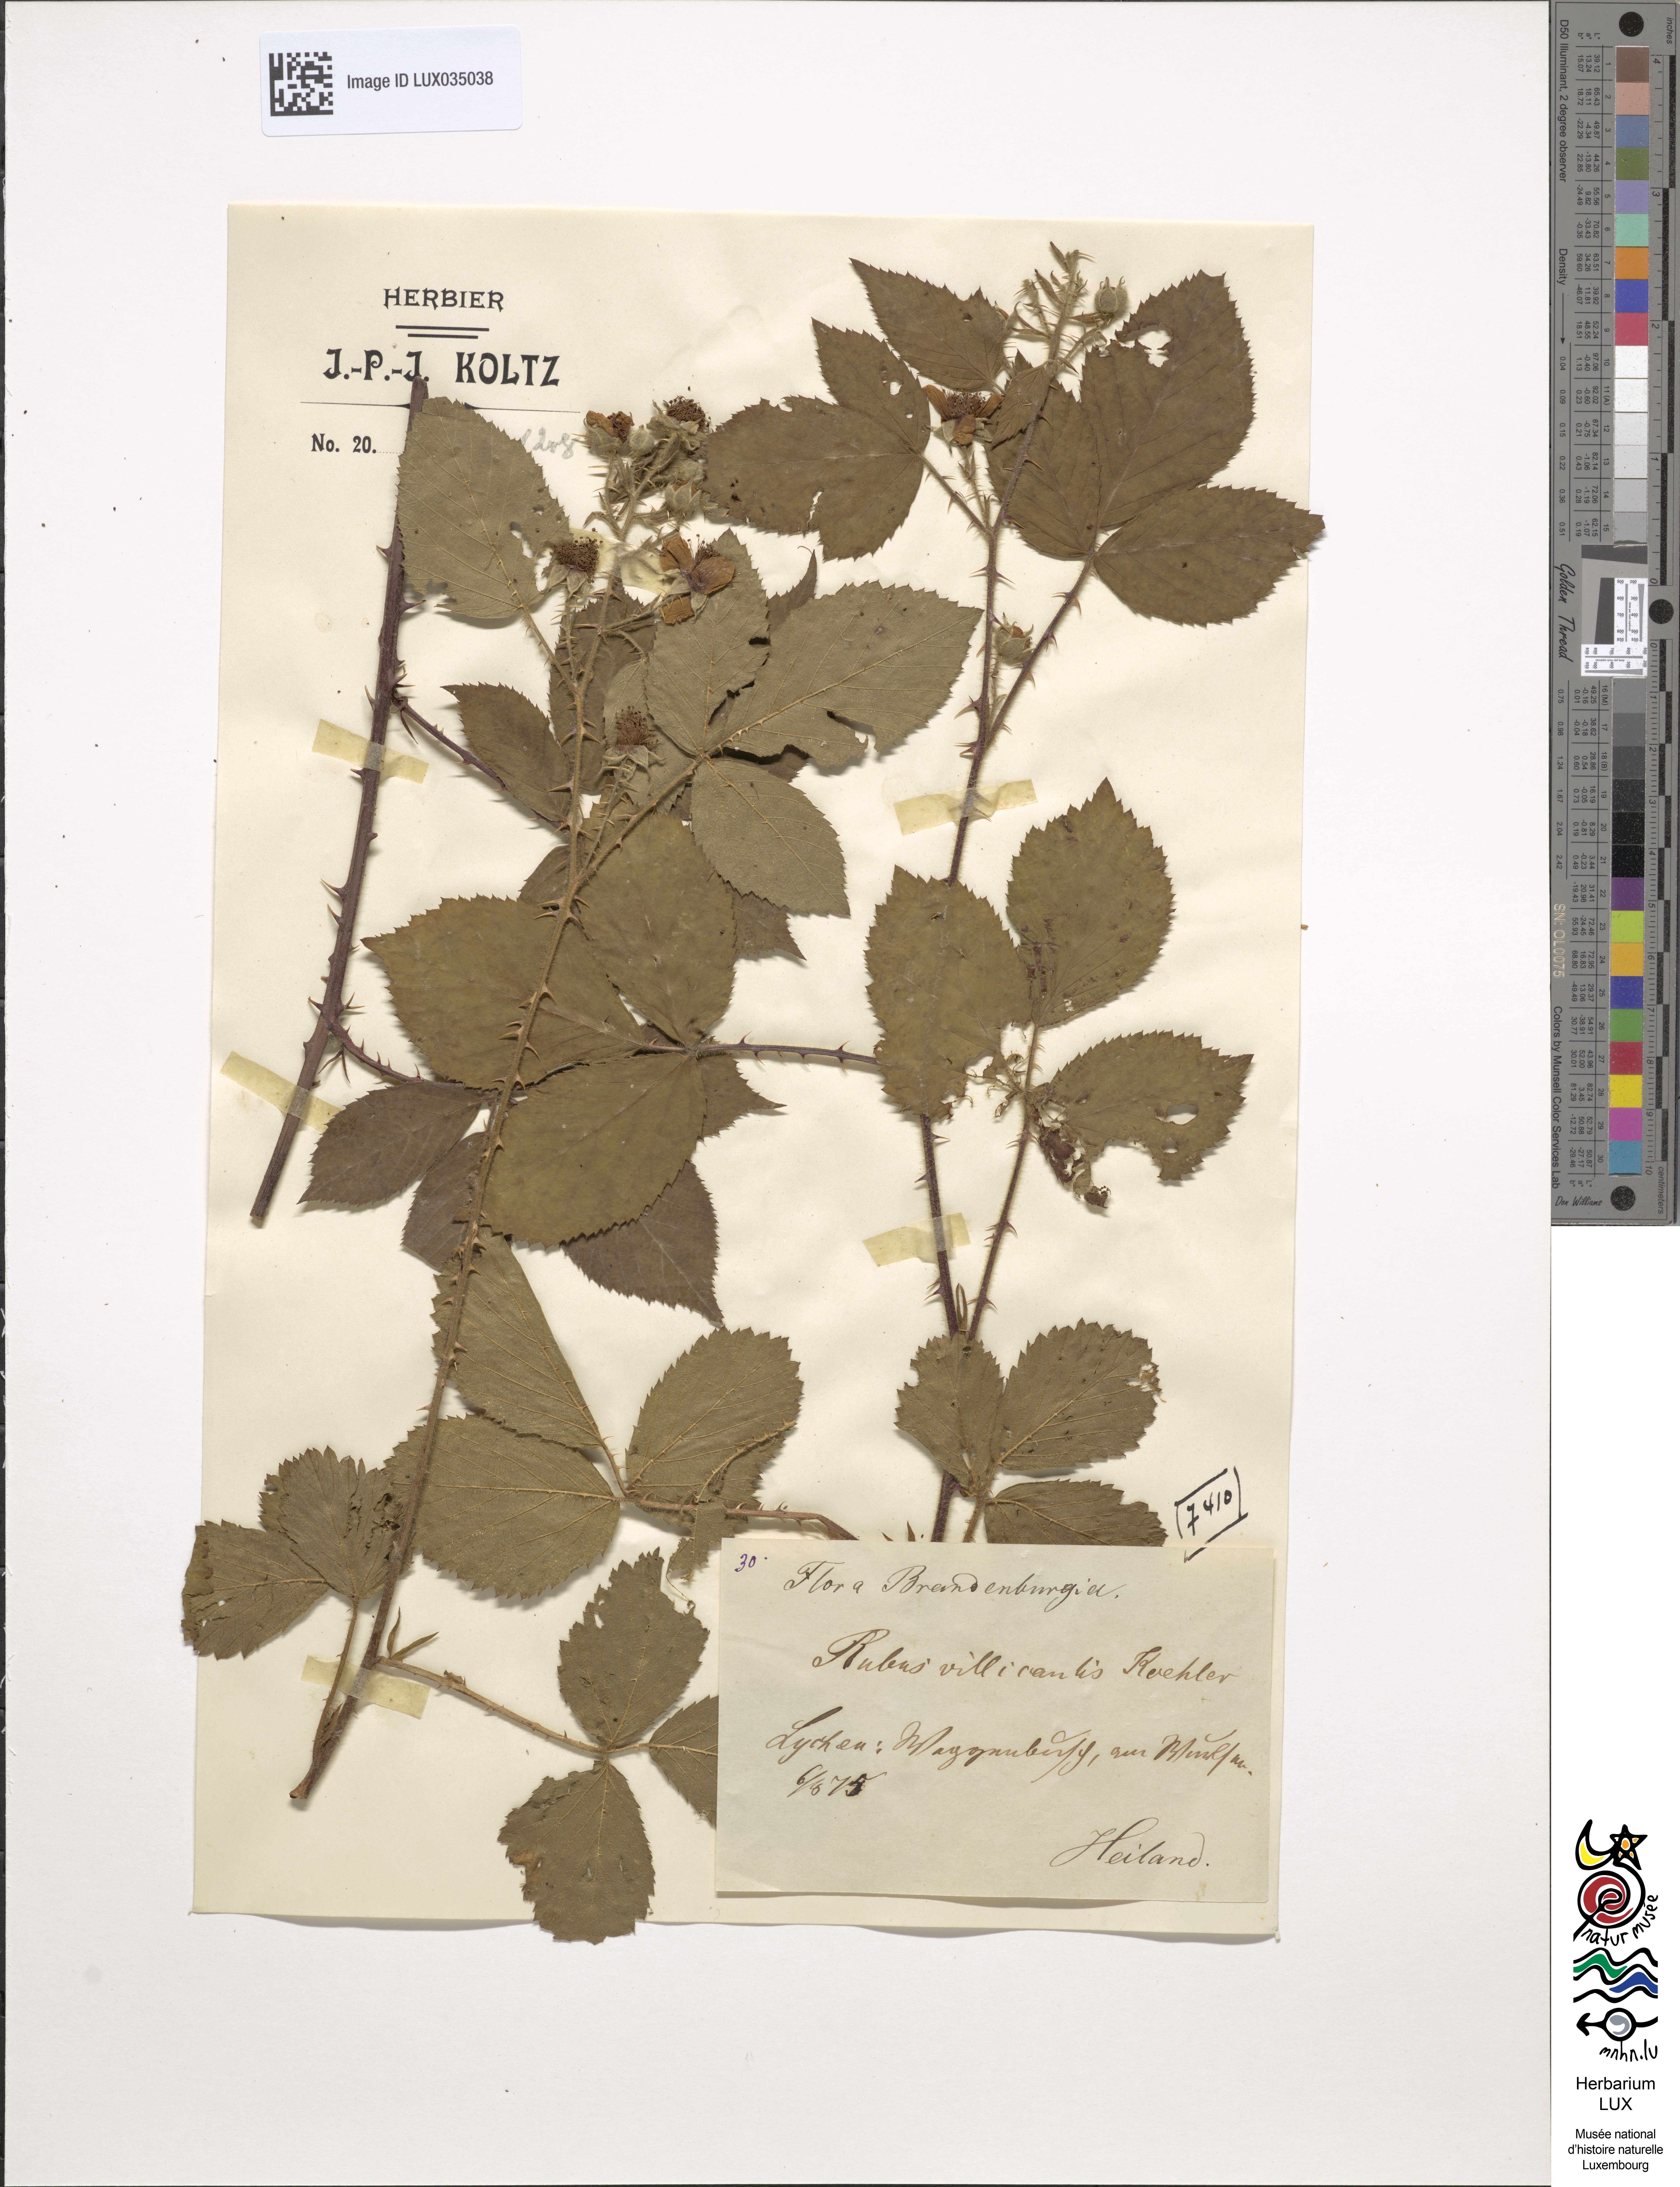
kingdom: Plantae
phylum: Tracheophyta
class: Magnoliopsida
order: Rosales
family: Rosaceae
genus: Rubus
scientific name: Rubus gracilis
